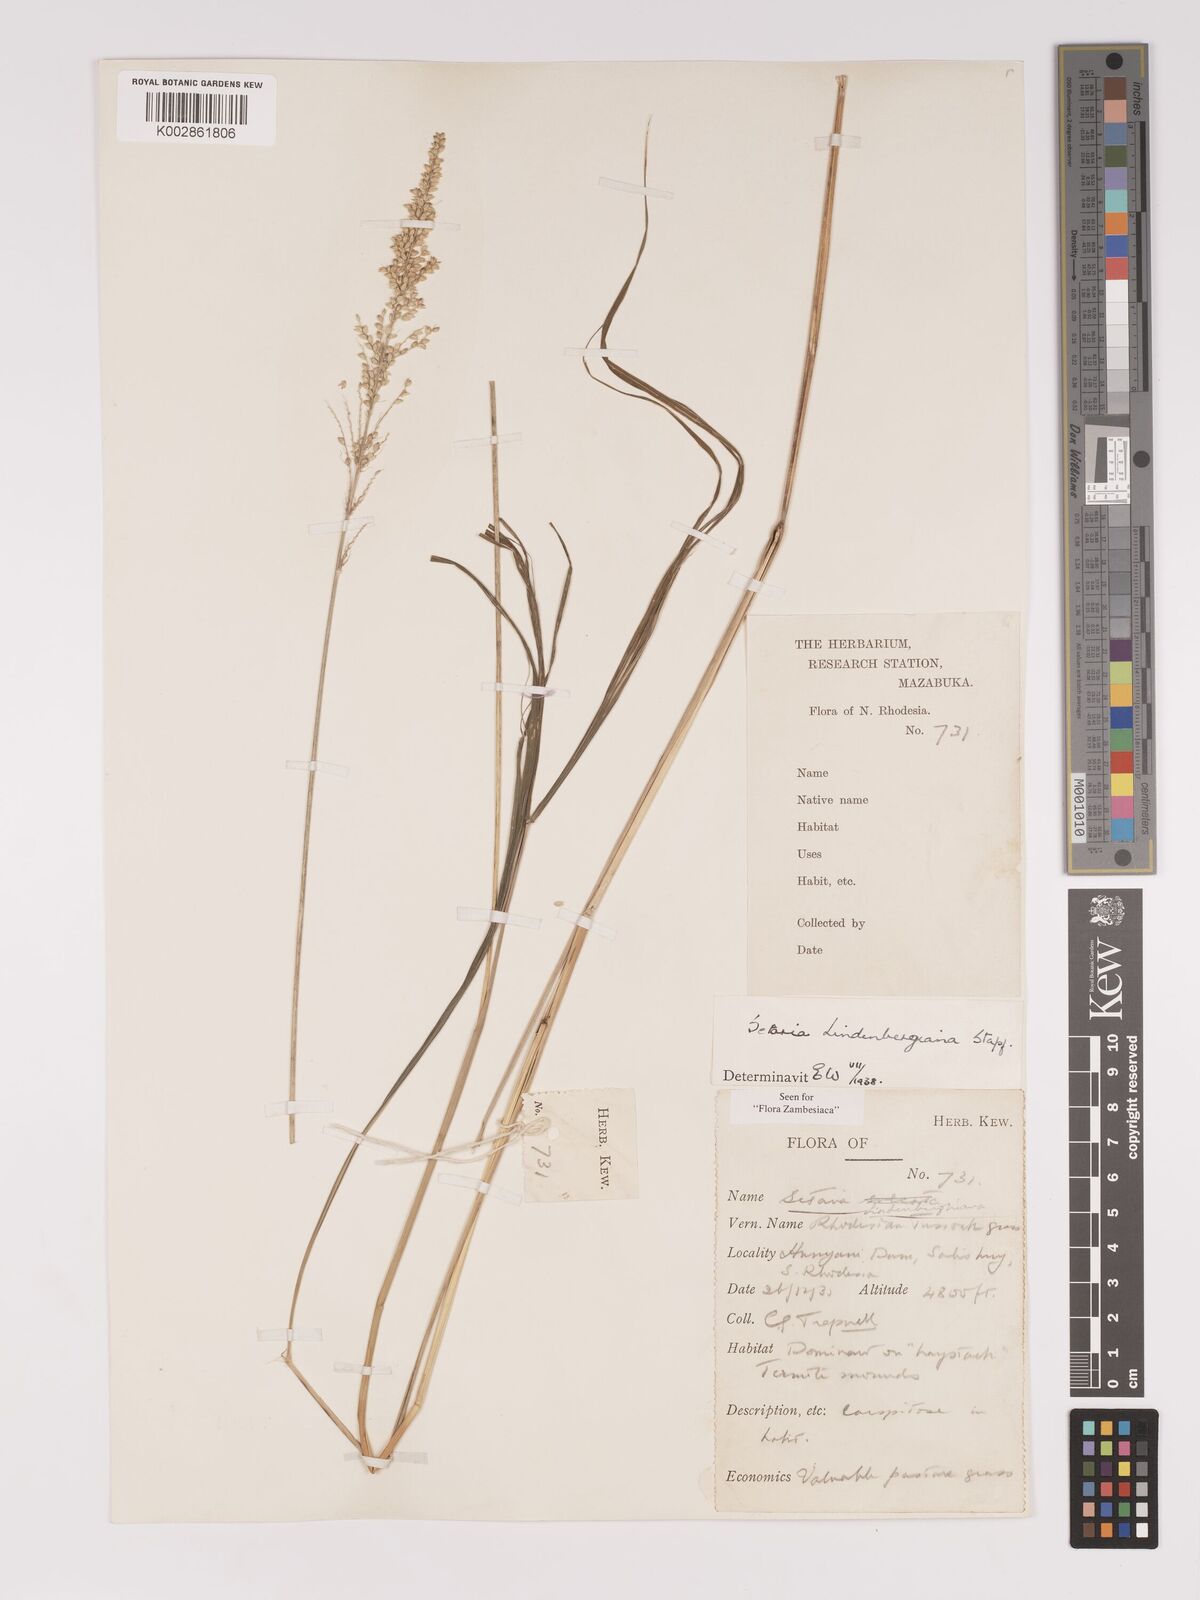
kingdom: Plantae
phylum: Tracheophyta
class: Liliopsida
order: Poales
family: Poaceae
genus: Setaria
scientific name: Setaria lindenbergiana
